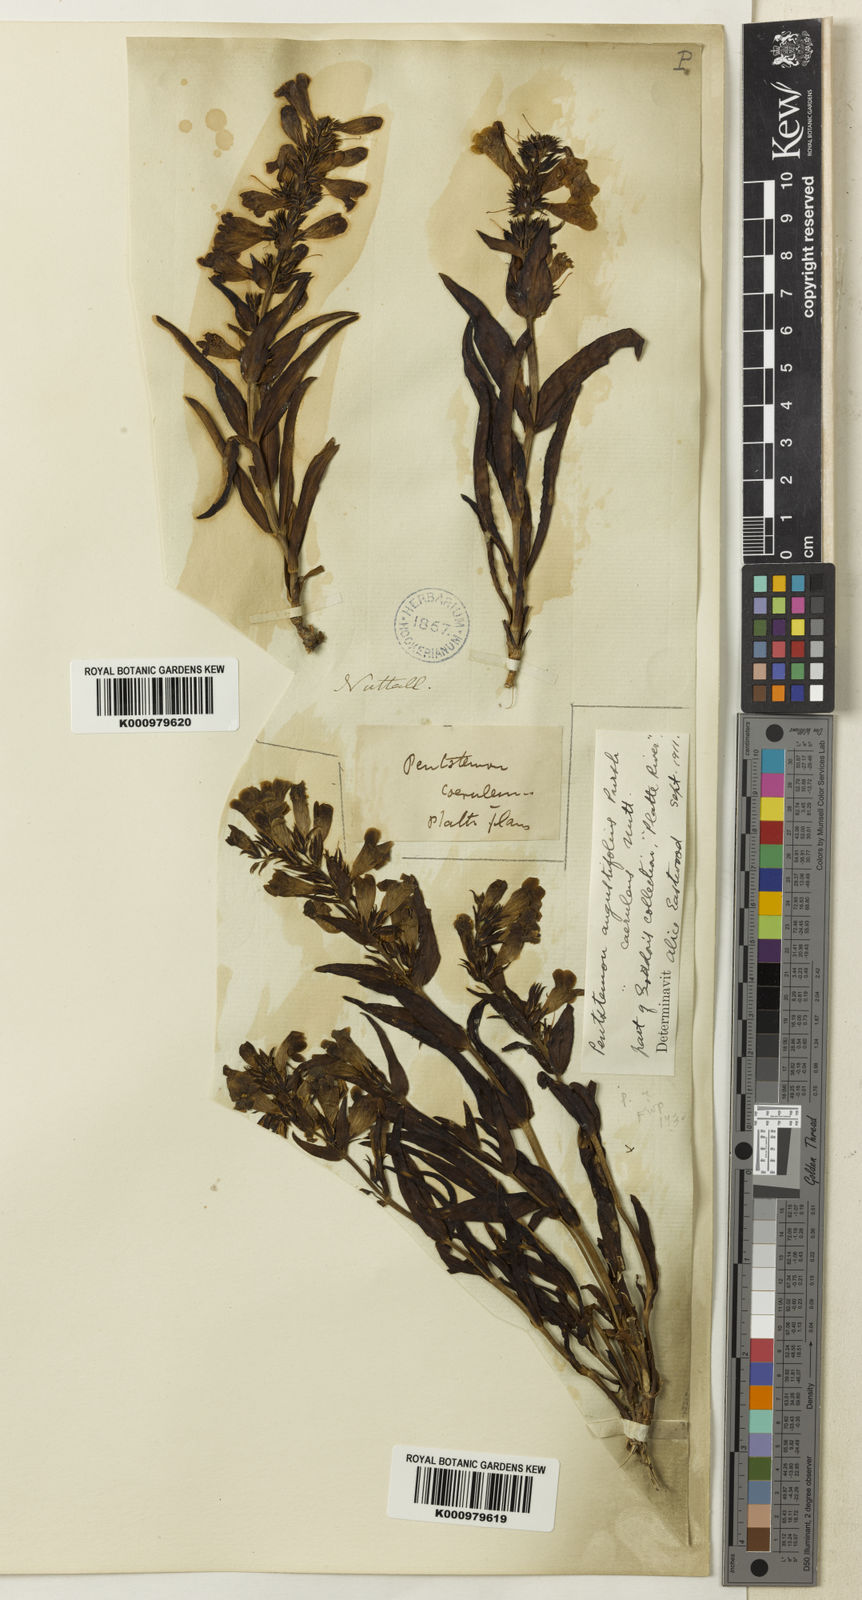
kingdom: Plantae
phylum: Tracheophyta
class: Magnoliopsida
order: Lamiales
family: Plantaginaceae
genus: Penstemon
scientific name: Penstemon angustifolius
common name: Narrow beardtongue
